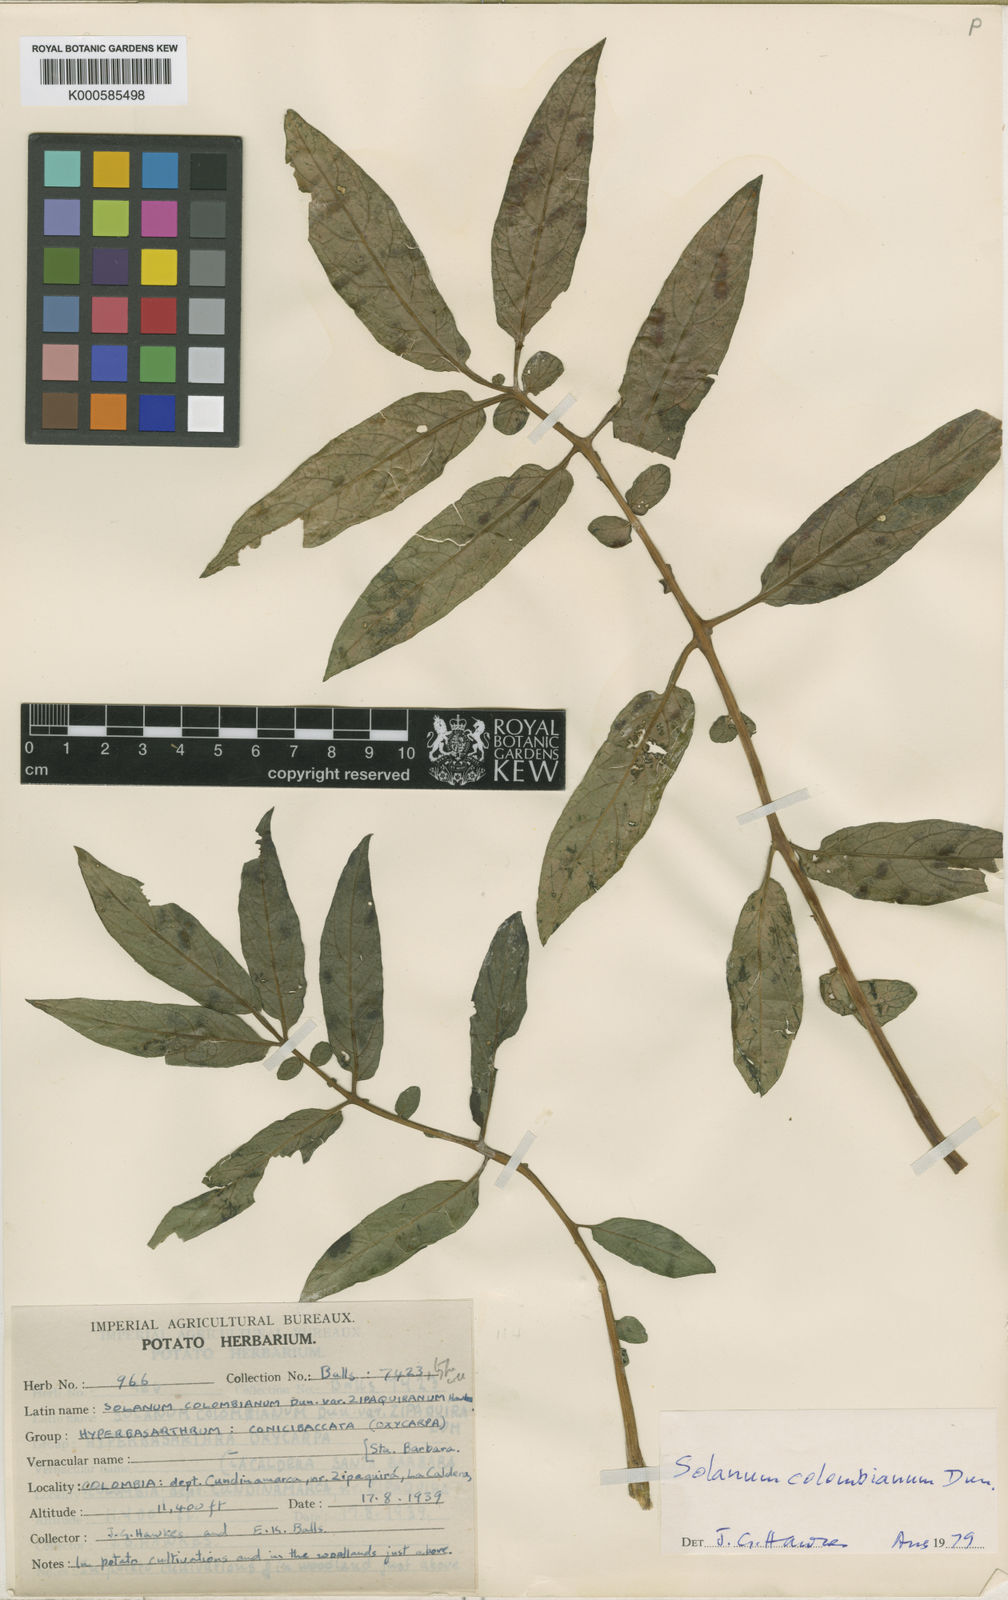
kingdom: Plantae
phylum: Tracheophyta
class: Magnoliopsida
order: Solanales
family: Solanaceae
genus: Solanum
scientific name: Solanum colombianum
